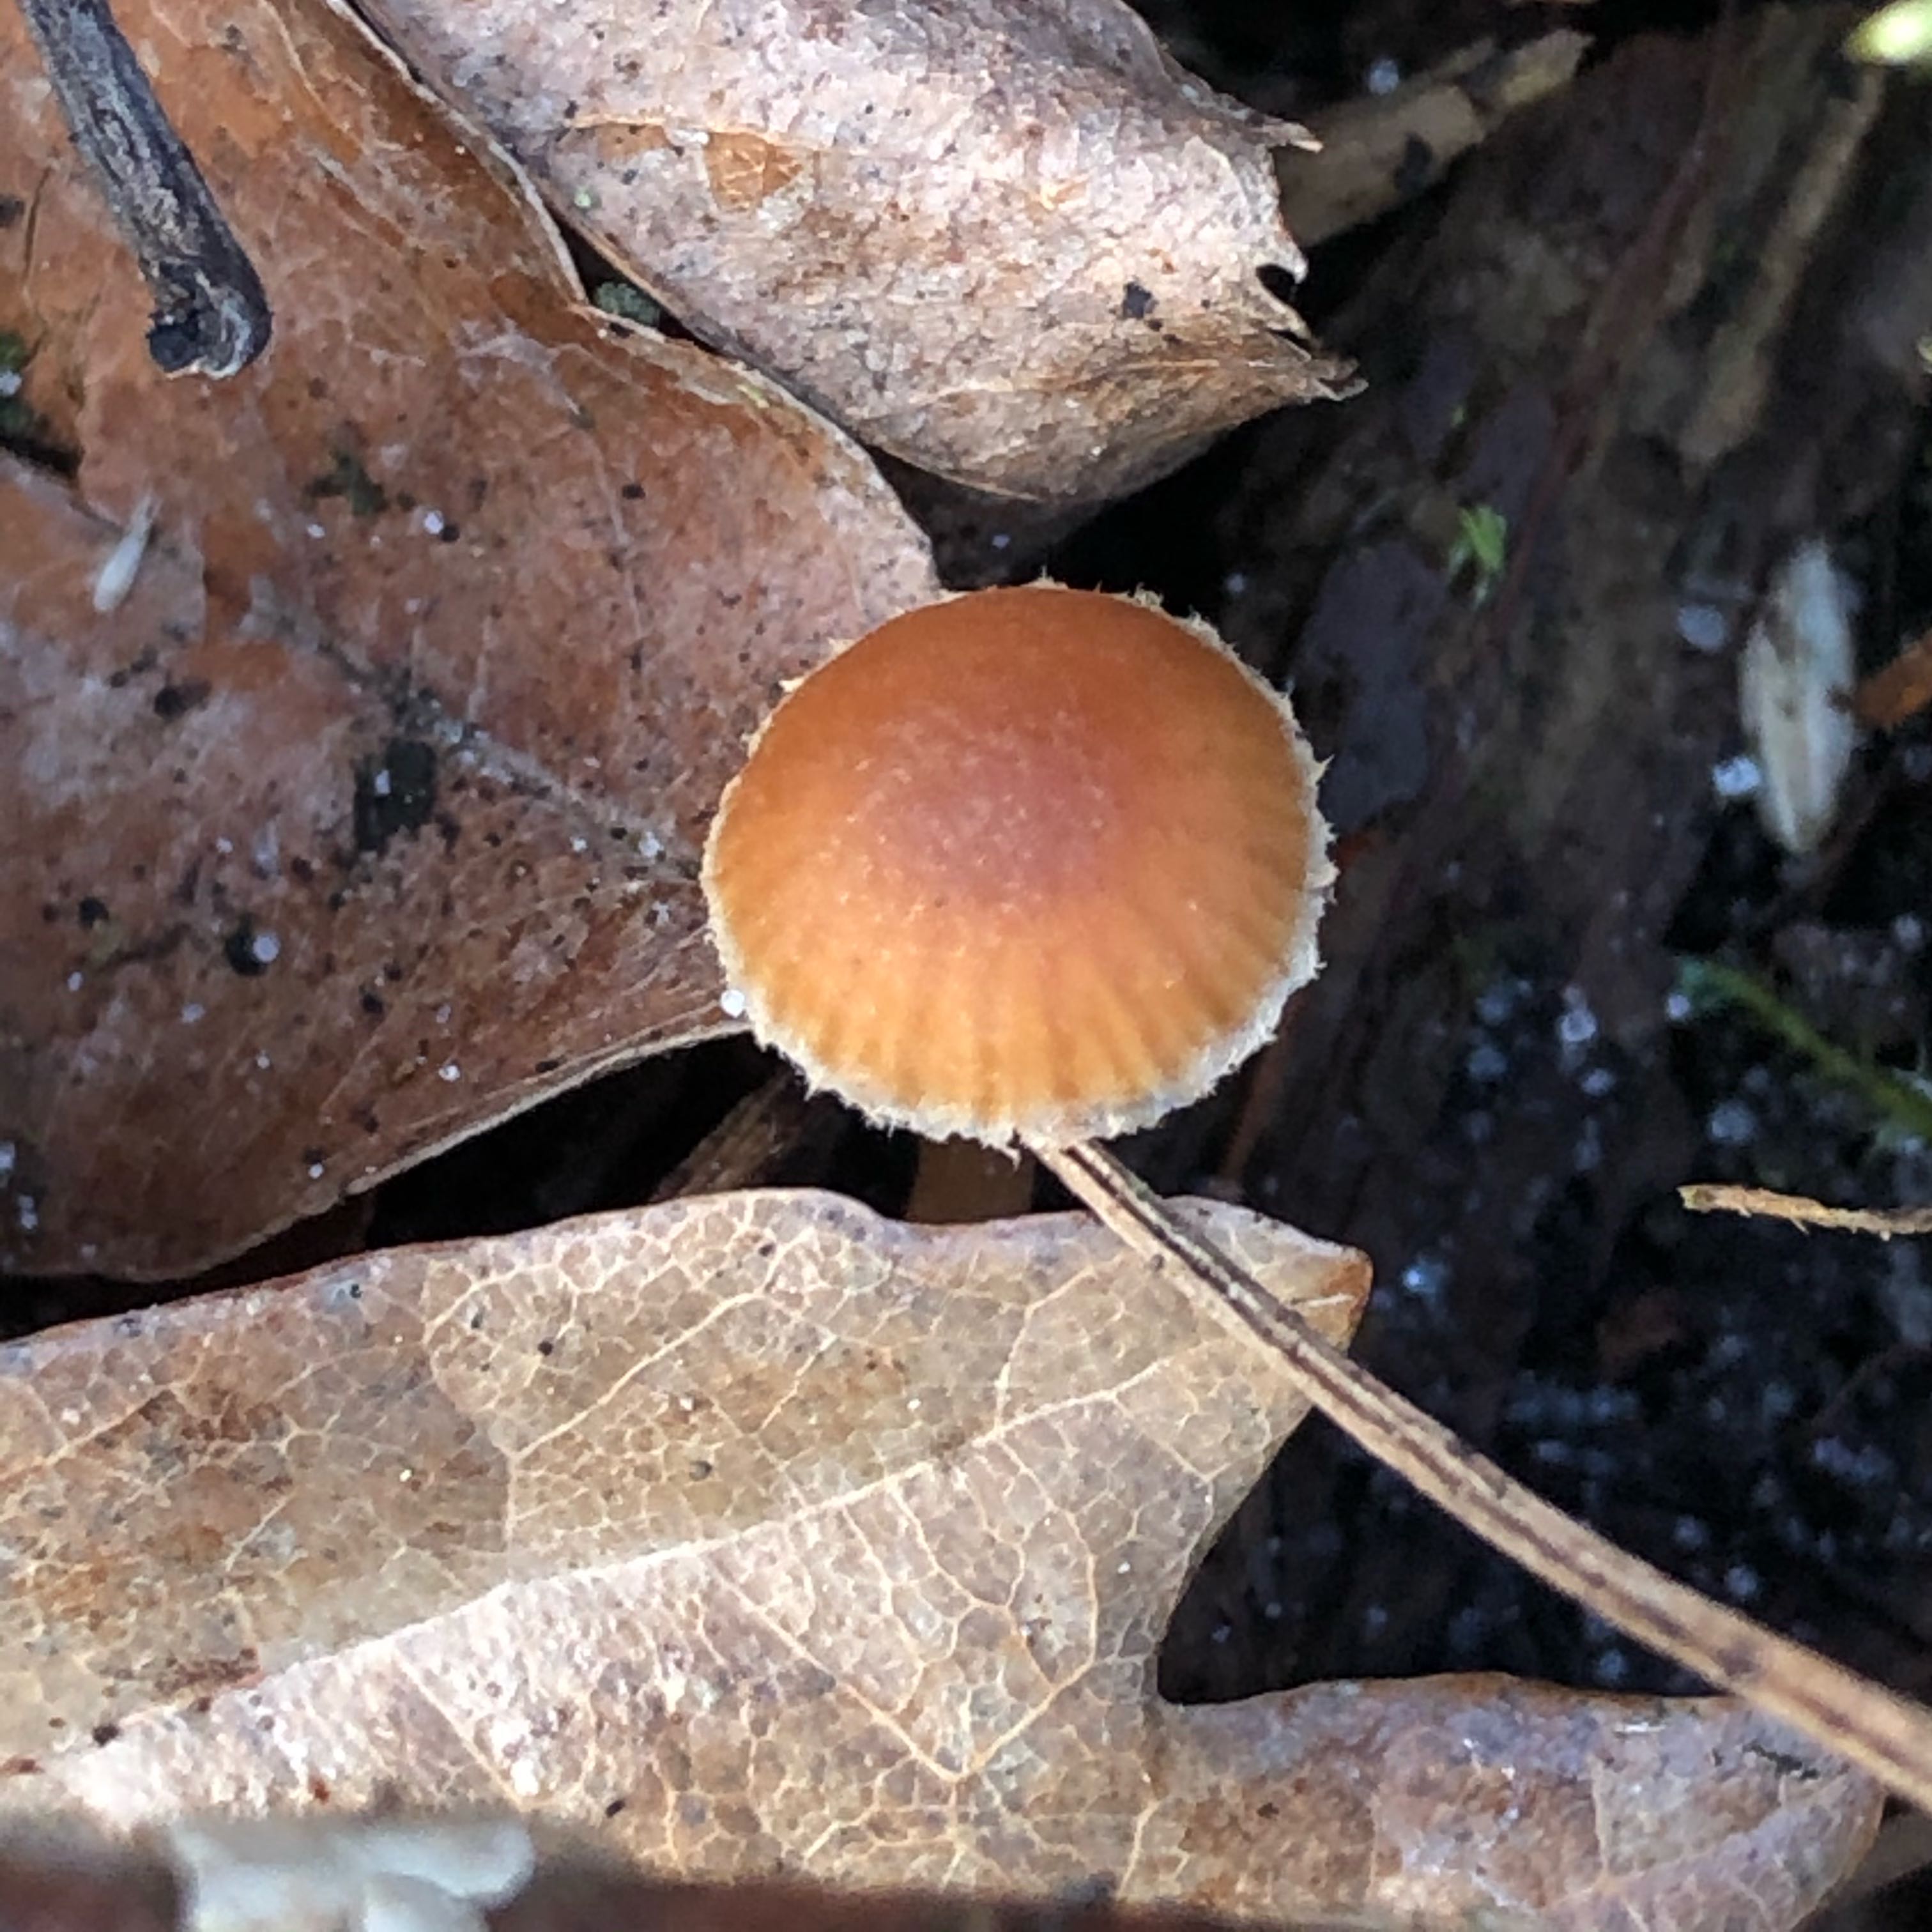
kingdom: Fungi
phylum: Basidiomycota
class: Agaricomycetes
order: Agaricales
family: Tubariaceae
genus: Tubaria
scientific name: Tubaria furfuracea
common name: kliddet fnughat
